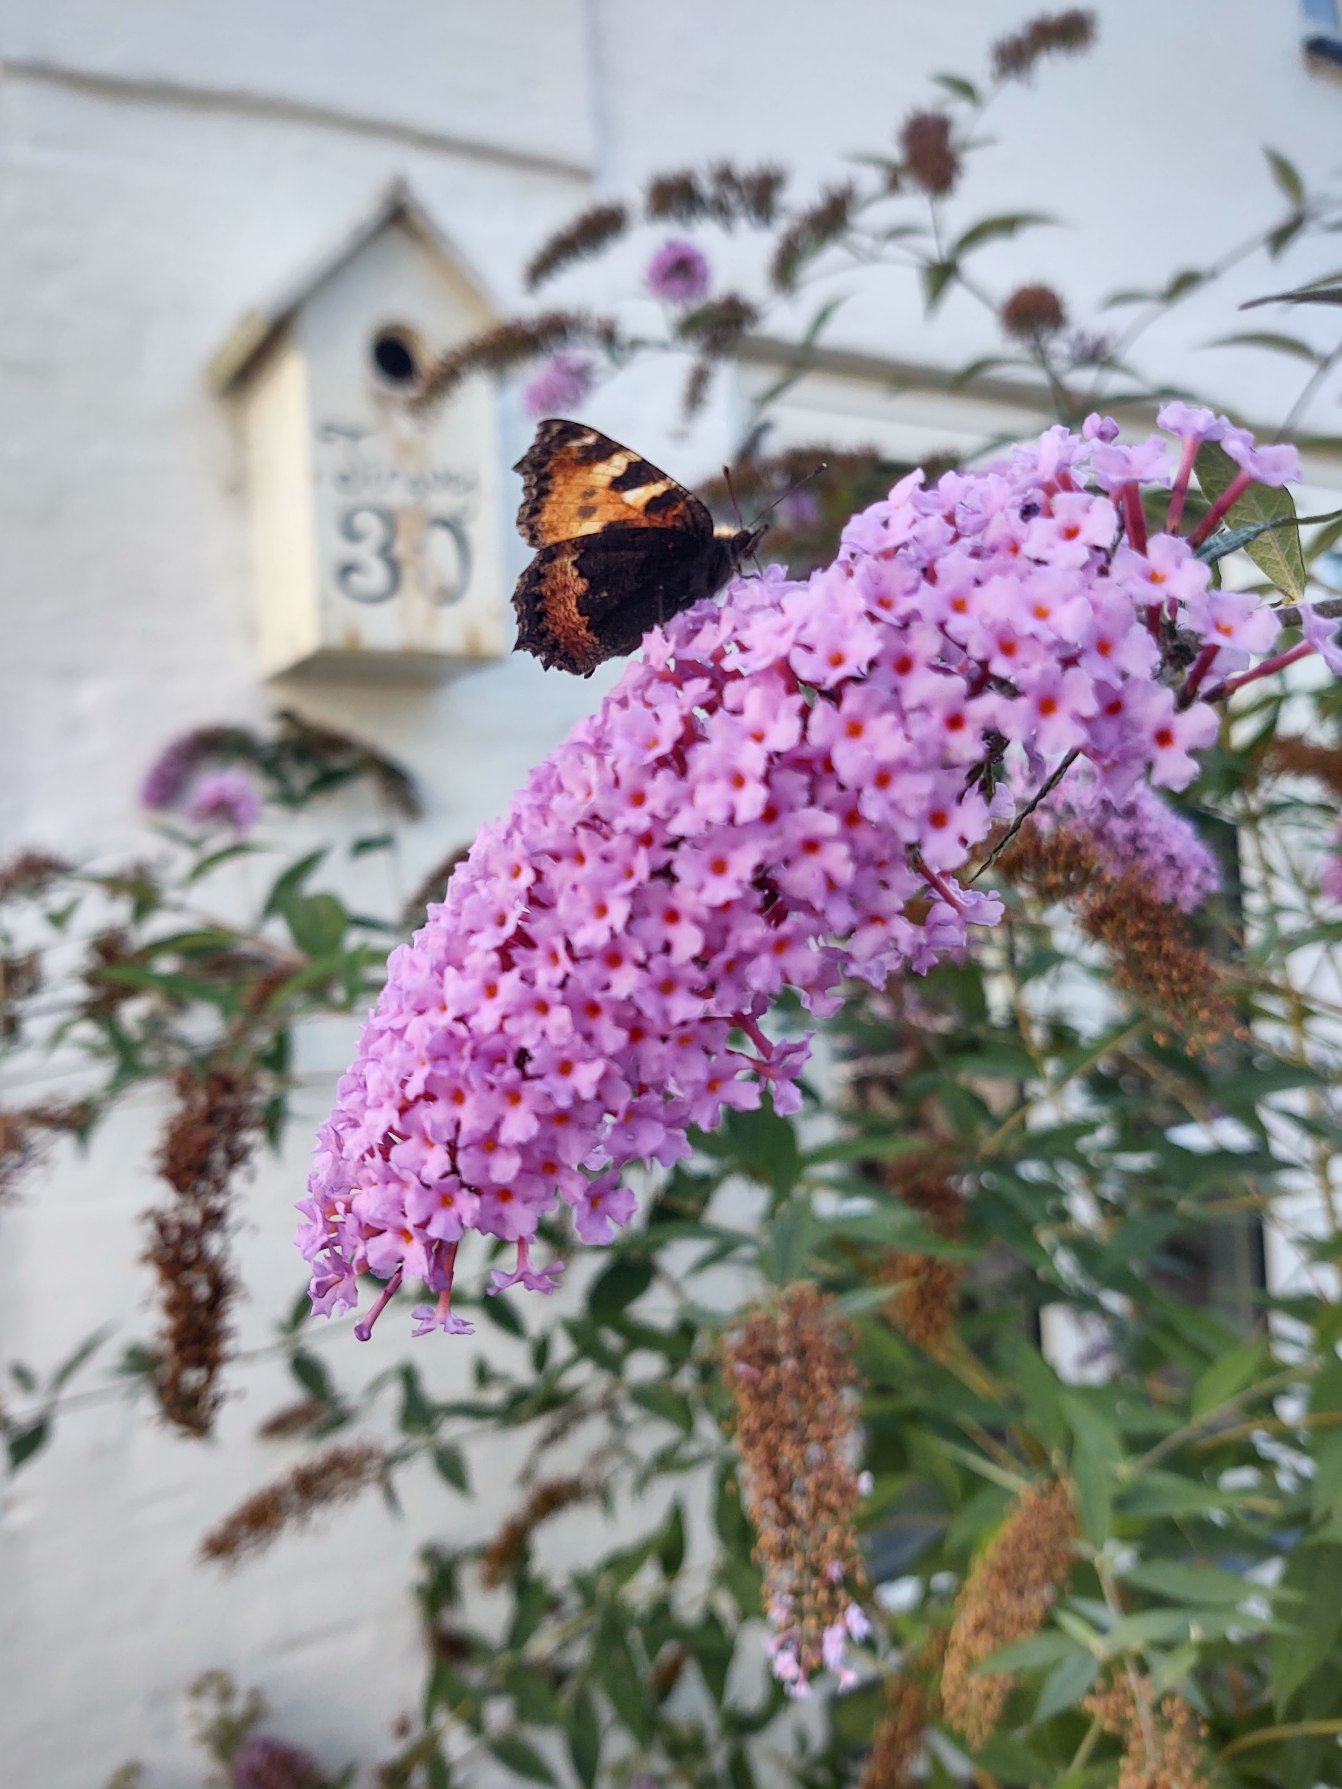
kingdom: Animalia
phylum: Arthropoda
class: Insecta
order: Lepidoptera
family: Nymphalidae
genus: Aglais
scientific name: Aglais urticae
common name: Nældens takvinge
